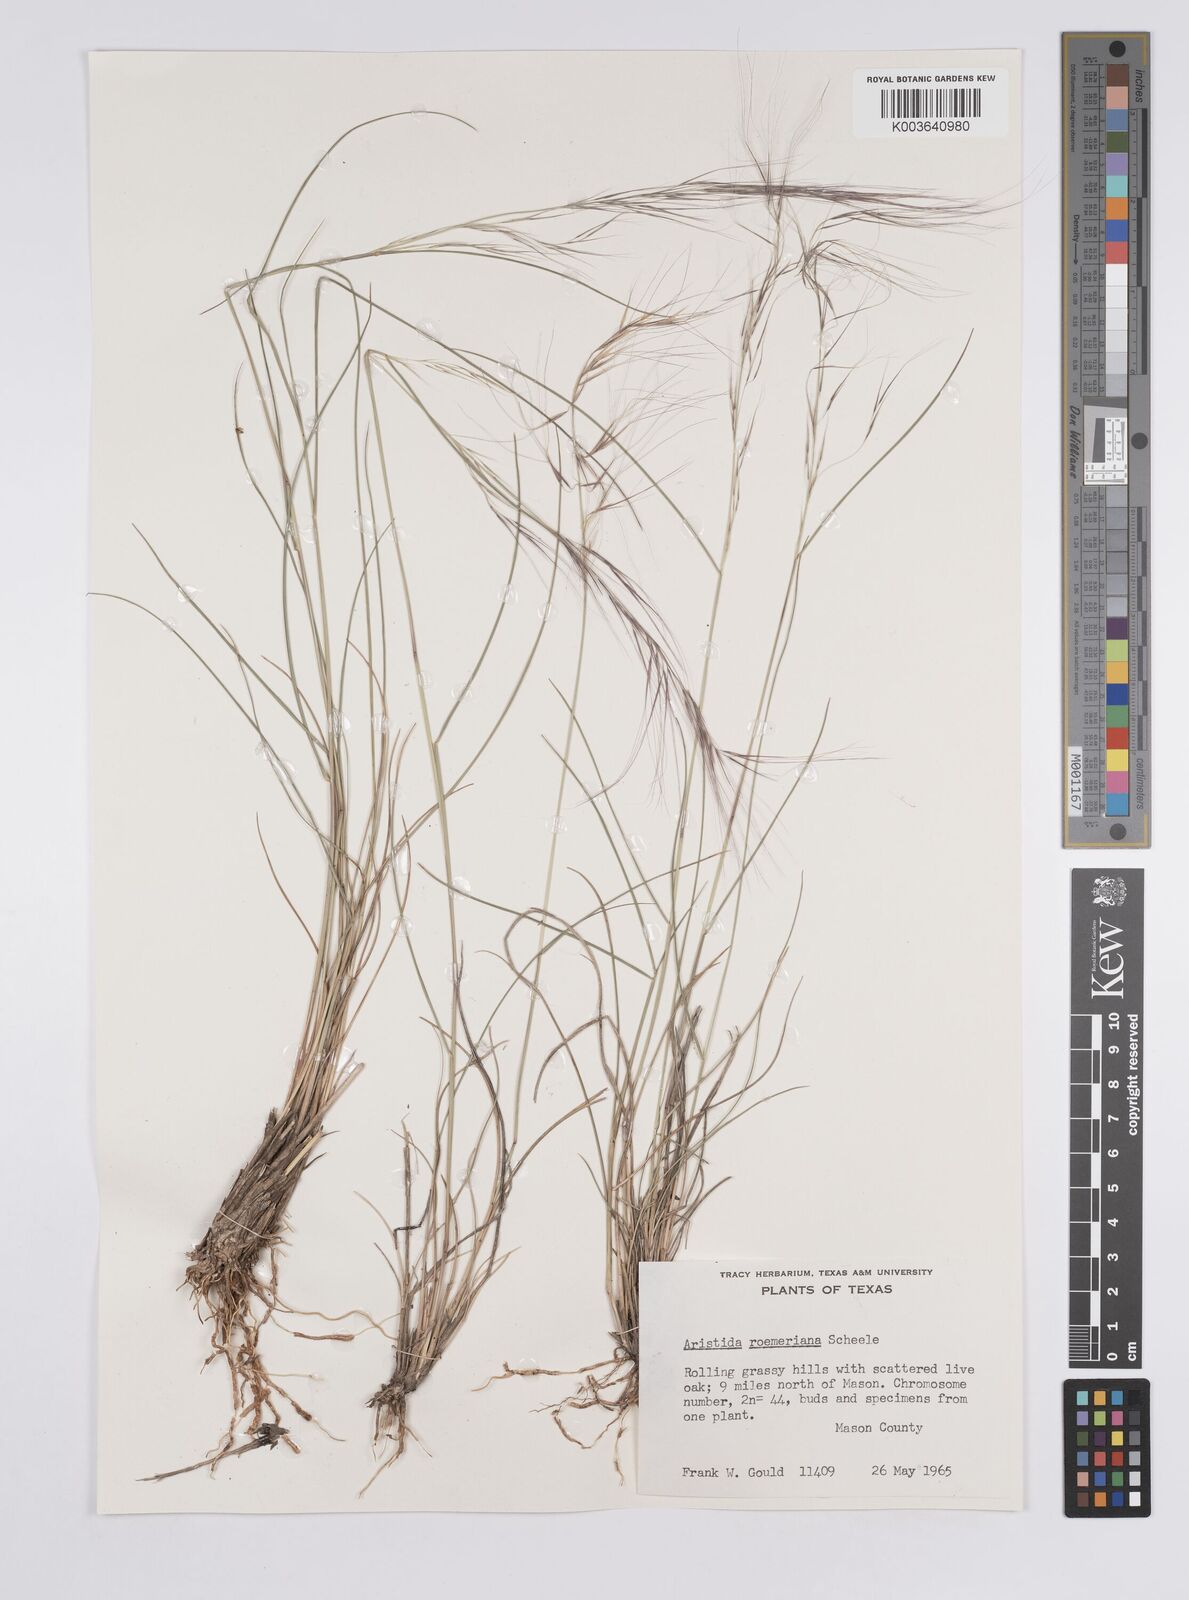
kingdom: Plantae
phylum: Tracheophyta
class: Liliopsida
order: Poales
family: Poaceae
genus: Aristida
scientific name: Aristida purpurea
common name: Purple threeawn
